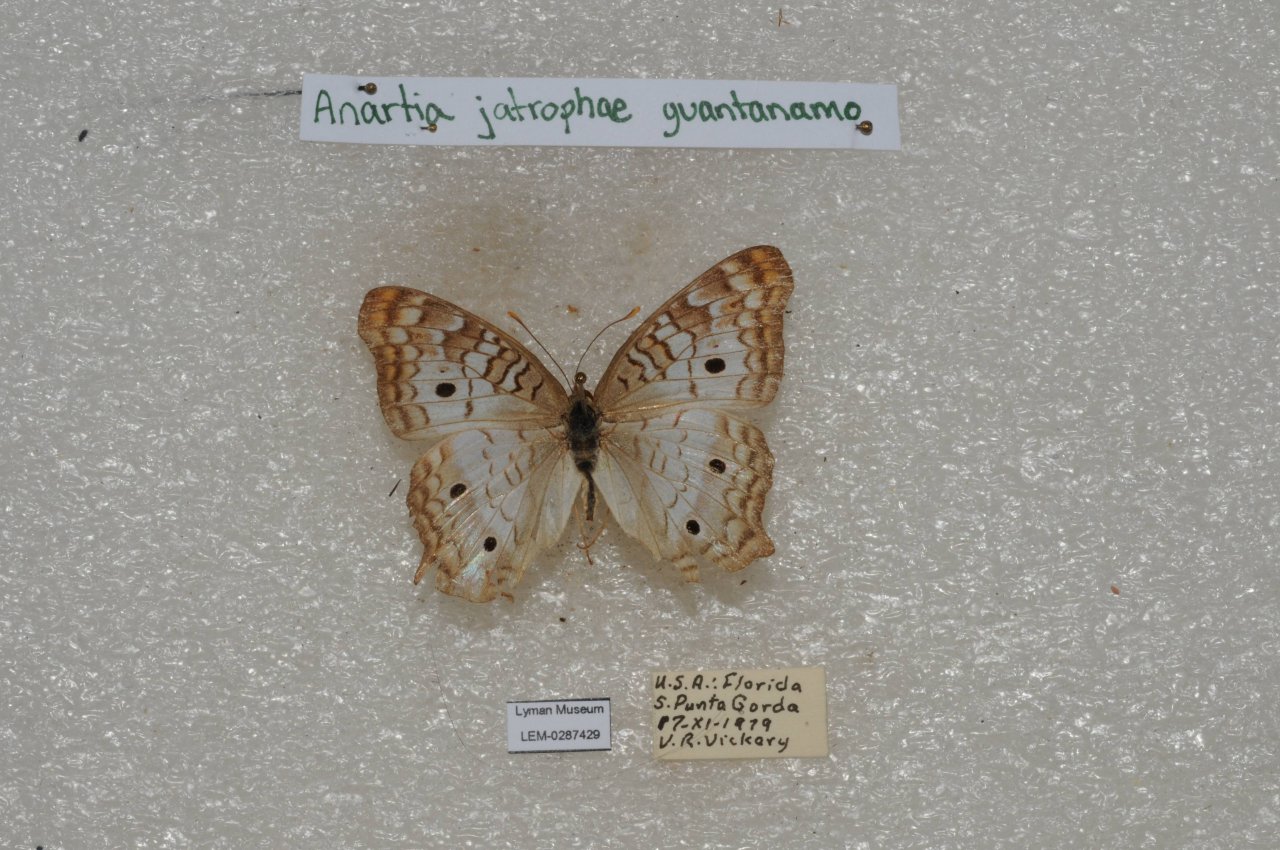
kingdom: Animalia
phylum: Arthropoda
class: Insecta
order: Lepidoptera
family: Nymphalidae
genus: Anartia
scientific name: Anartia jatrophae
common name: White Peacock
